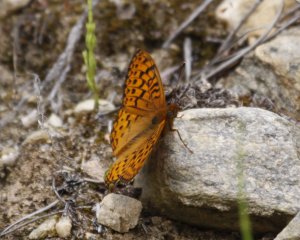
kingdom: Animalia
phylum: Arthropoda
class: Insecta
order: Lepidoptera
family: Nymphalidae
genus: Speyeria
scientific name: Speyeria atlantis
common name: Northwestern Fritillary
